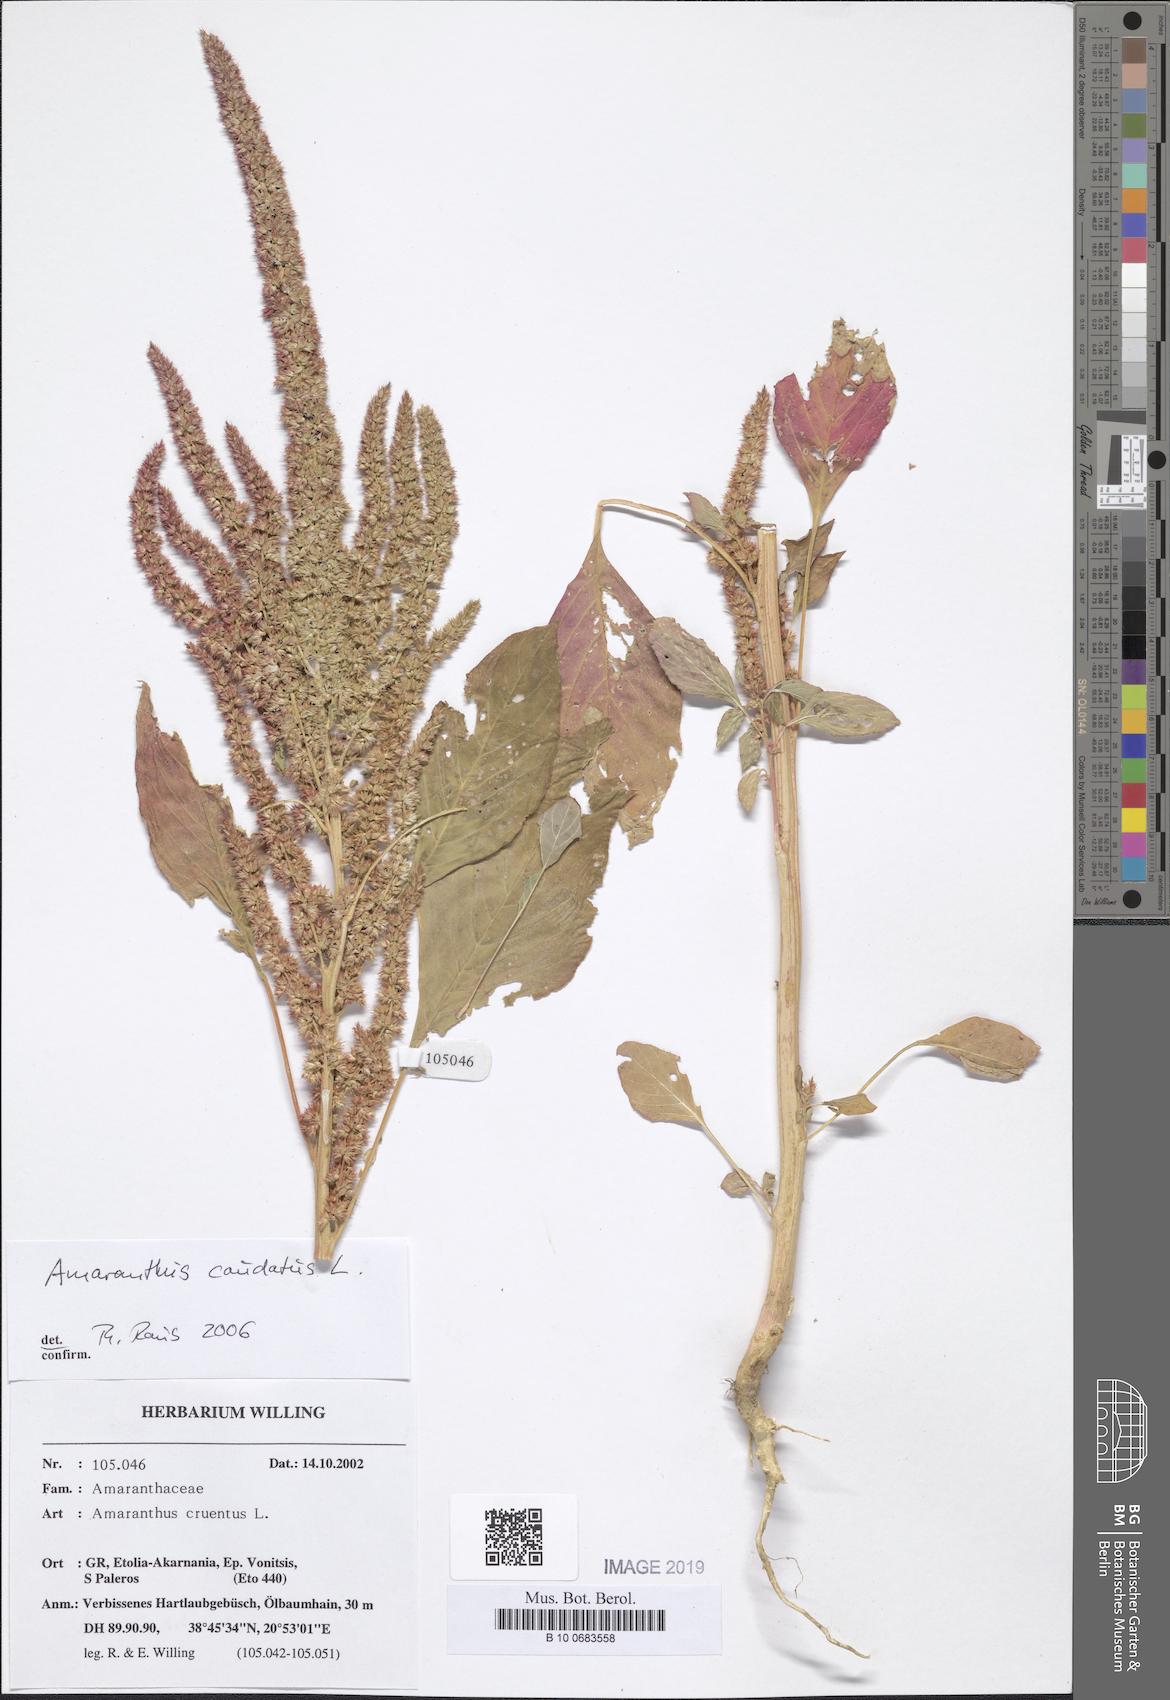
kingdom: Plantae
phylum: Tracheophyta
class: Magnoliopsida
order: Caryophyllales
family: Amaranthaceae
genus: Amaranthus
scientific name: Amaranthus caudatus
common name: Love-lies-bleeding
